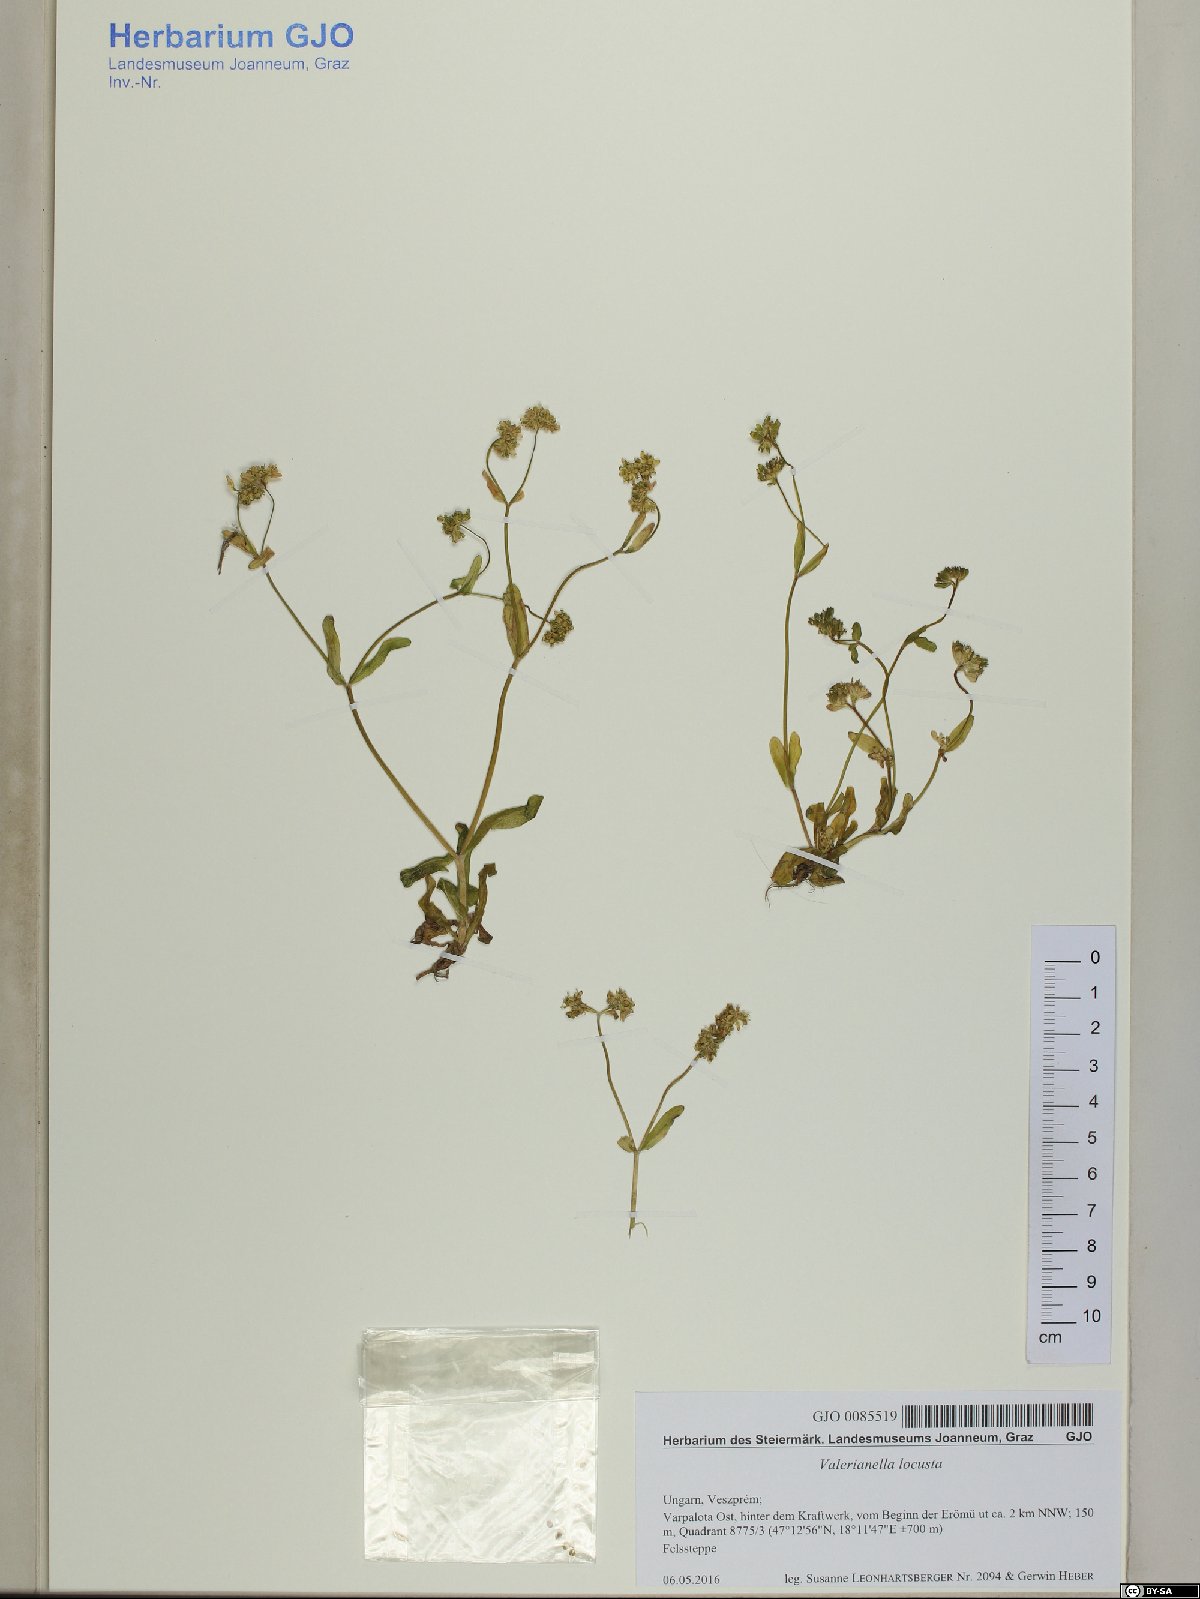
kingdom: Plantae
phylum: Tracheophyta
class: Magnoliopsida
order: Dipsacales
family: Caprifoliaceae
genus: Valerianella
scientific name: Valerianella locusta
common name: Common cornsalad
